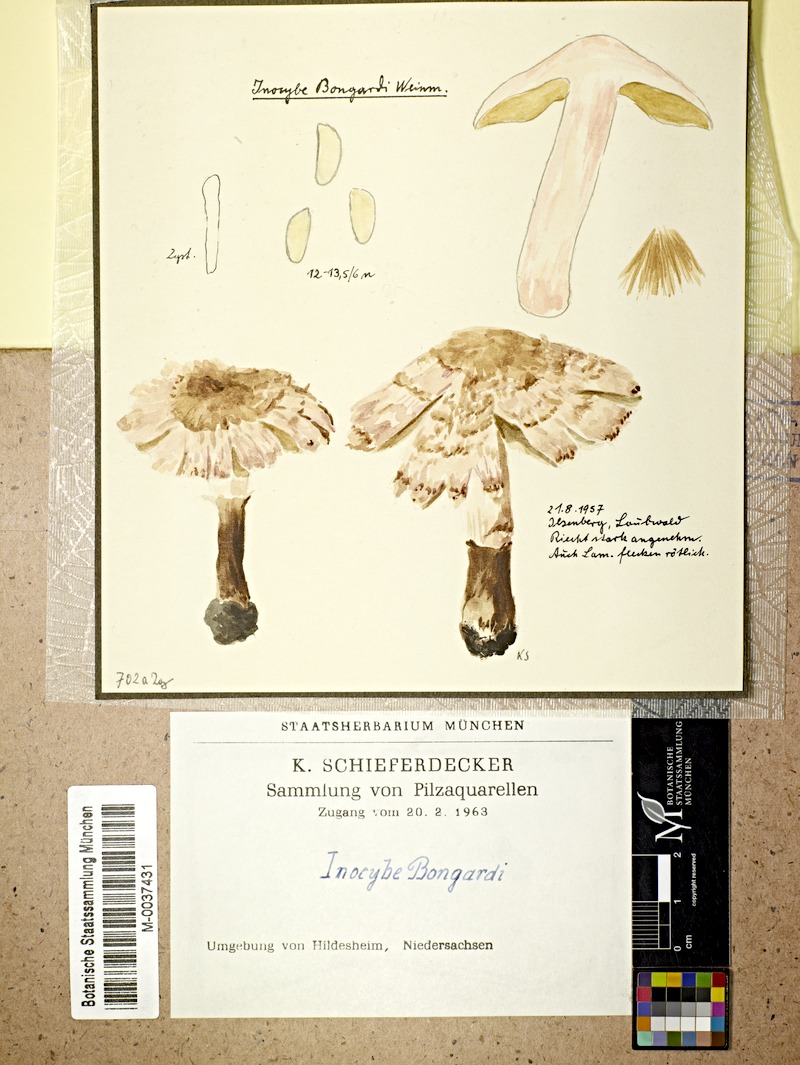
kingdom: Fungi
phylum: Basidiomycota
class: Agaricomycetes
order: Agaricales
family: Inocybaceae
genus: Inosperma
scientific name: Inosperma bongardii
